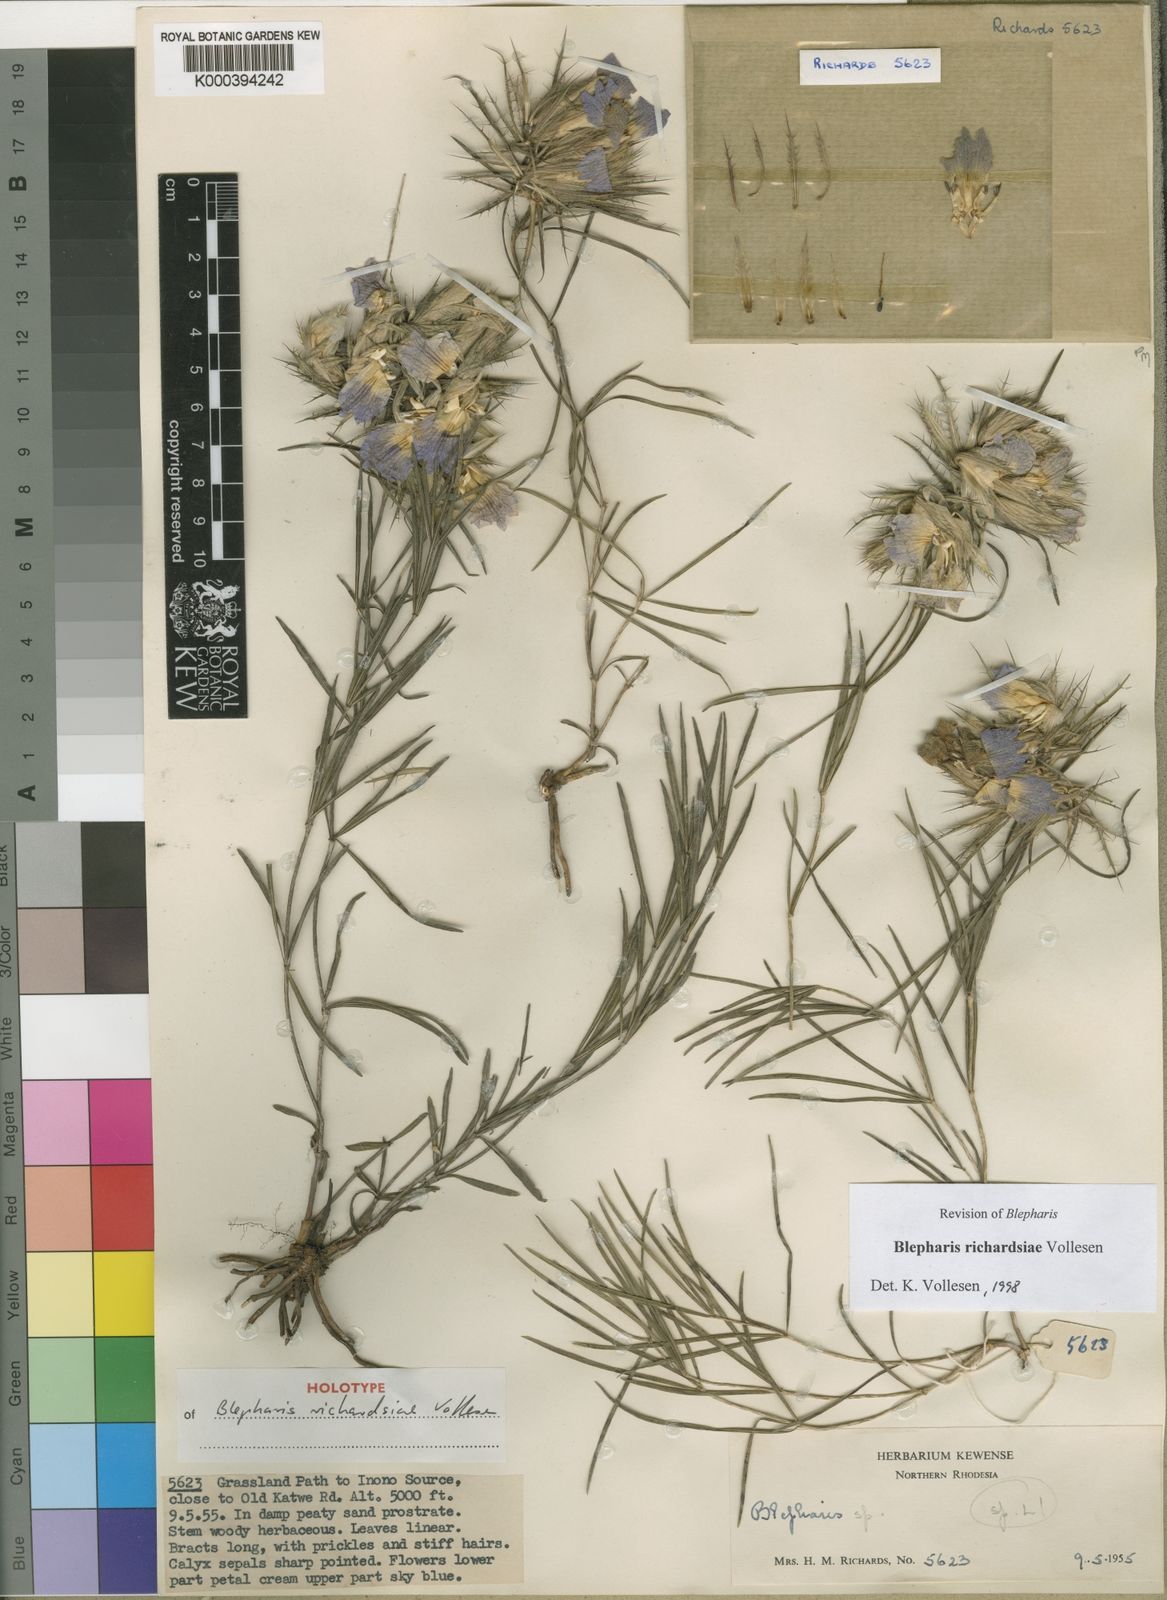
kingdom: Plantae
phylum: Tracheophyta
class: Magnoliopsida
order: Lamiales
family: Acanthaceae
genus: Blepharis
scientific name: Blepharis richardsiae
